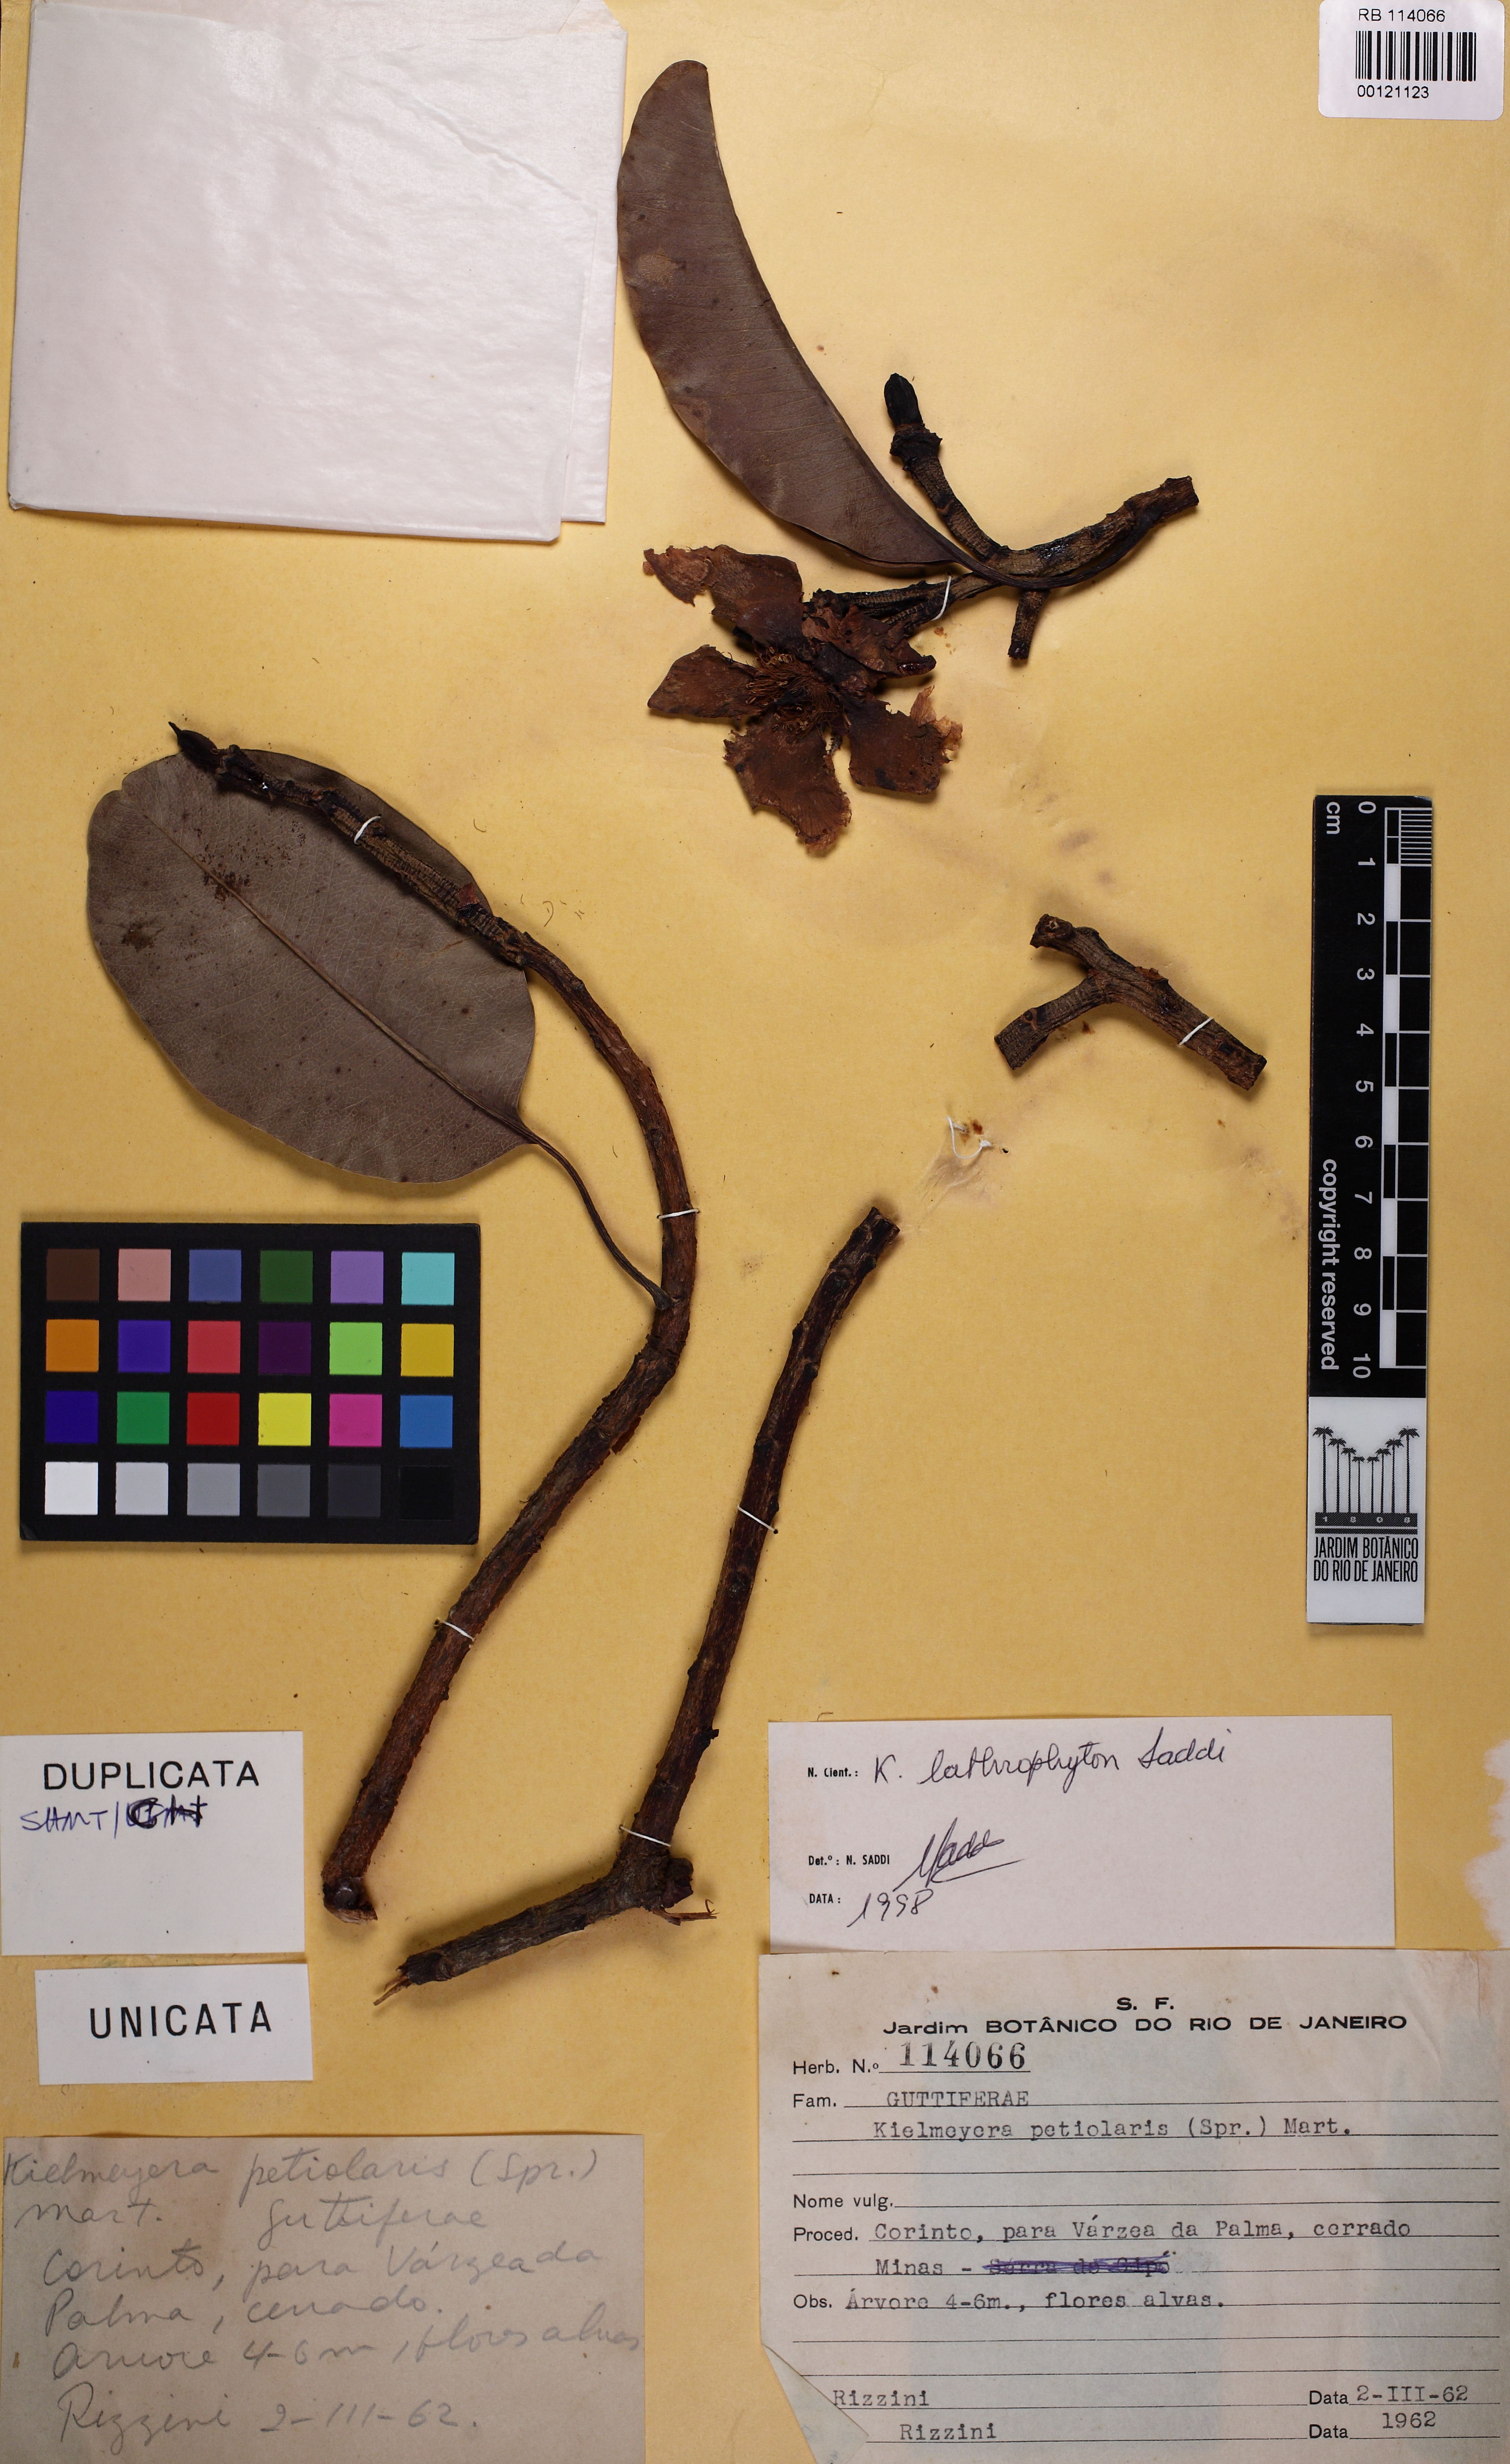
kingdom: Plantae
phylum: Tracheophyta
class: Magnoliopsida
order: Malpighiales
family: Calophyllaceae
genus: Kielmeyera
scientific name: Kielmeyera lathrophyton
